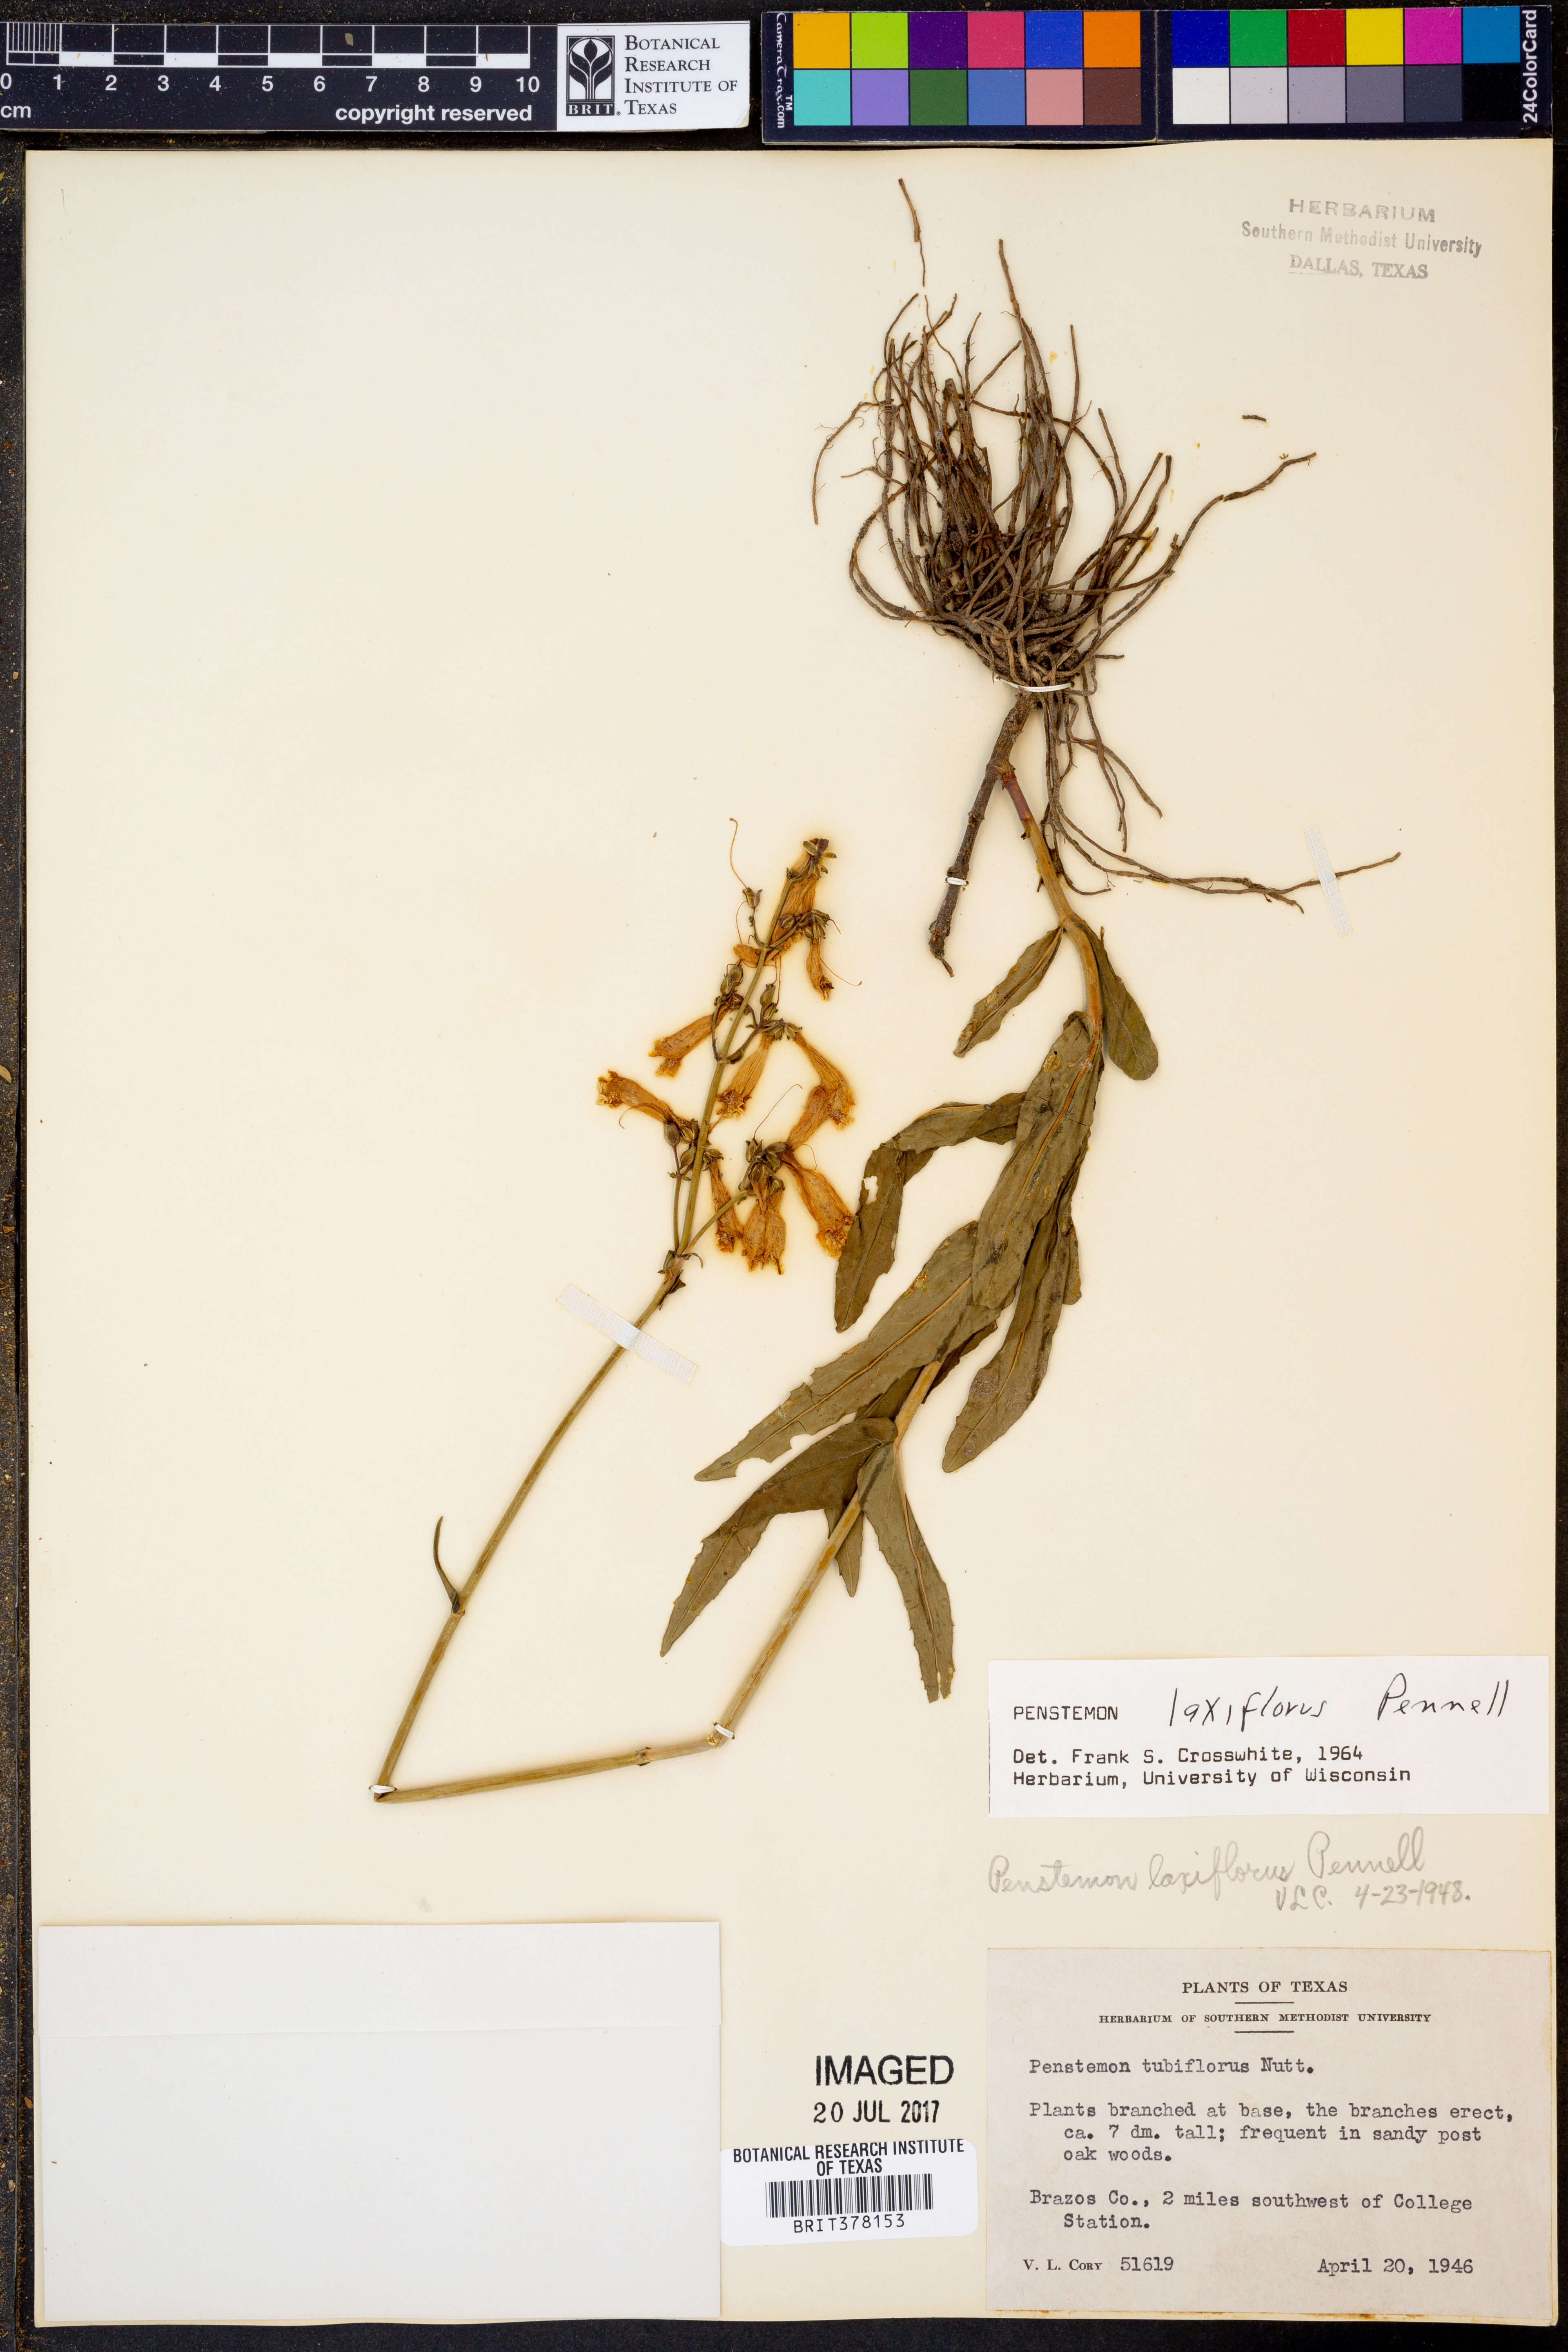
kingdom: Plantae
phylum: Tracheophyta
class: Magnoliopsida
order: Lamiales
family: Plantaginaceae
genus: Penstemon
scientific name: Penstemon laxiflorus
